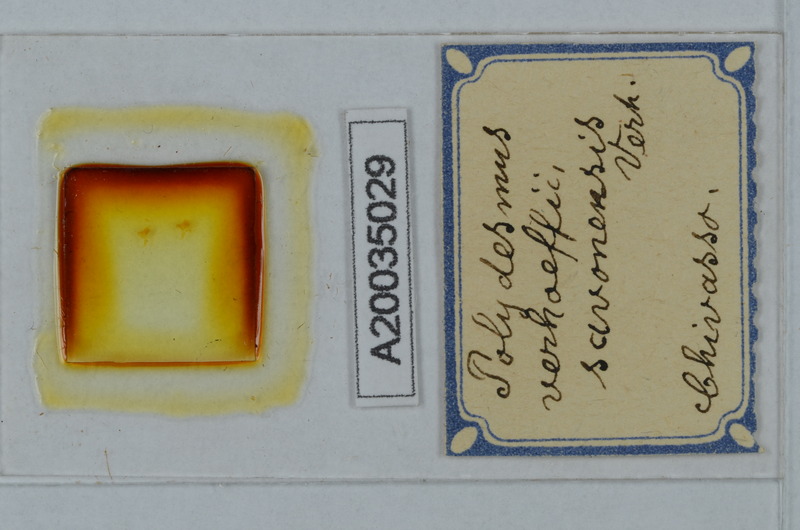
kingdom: Animalia
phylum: Arthropoda
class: Diplopoda
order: Polydesmida
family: Polydesmidae
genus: Polydesmus
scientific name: Polydesmus angustus
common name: Flat millipede
